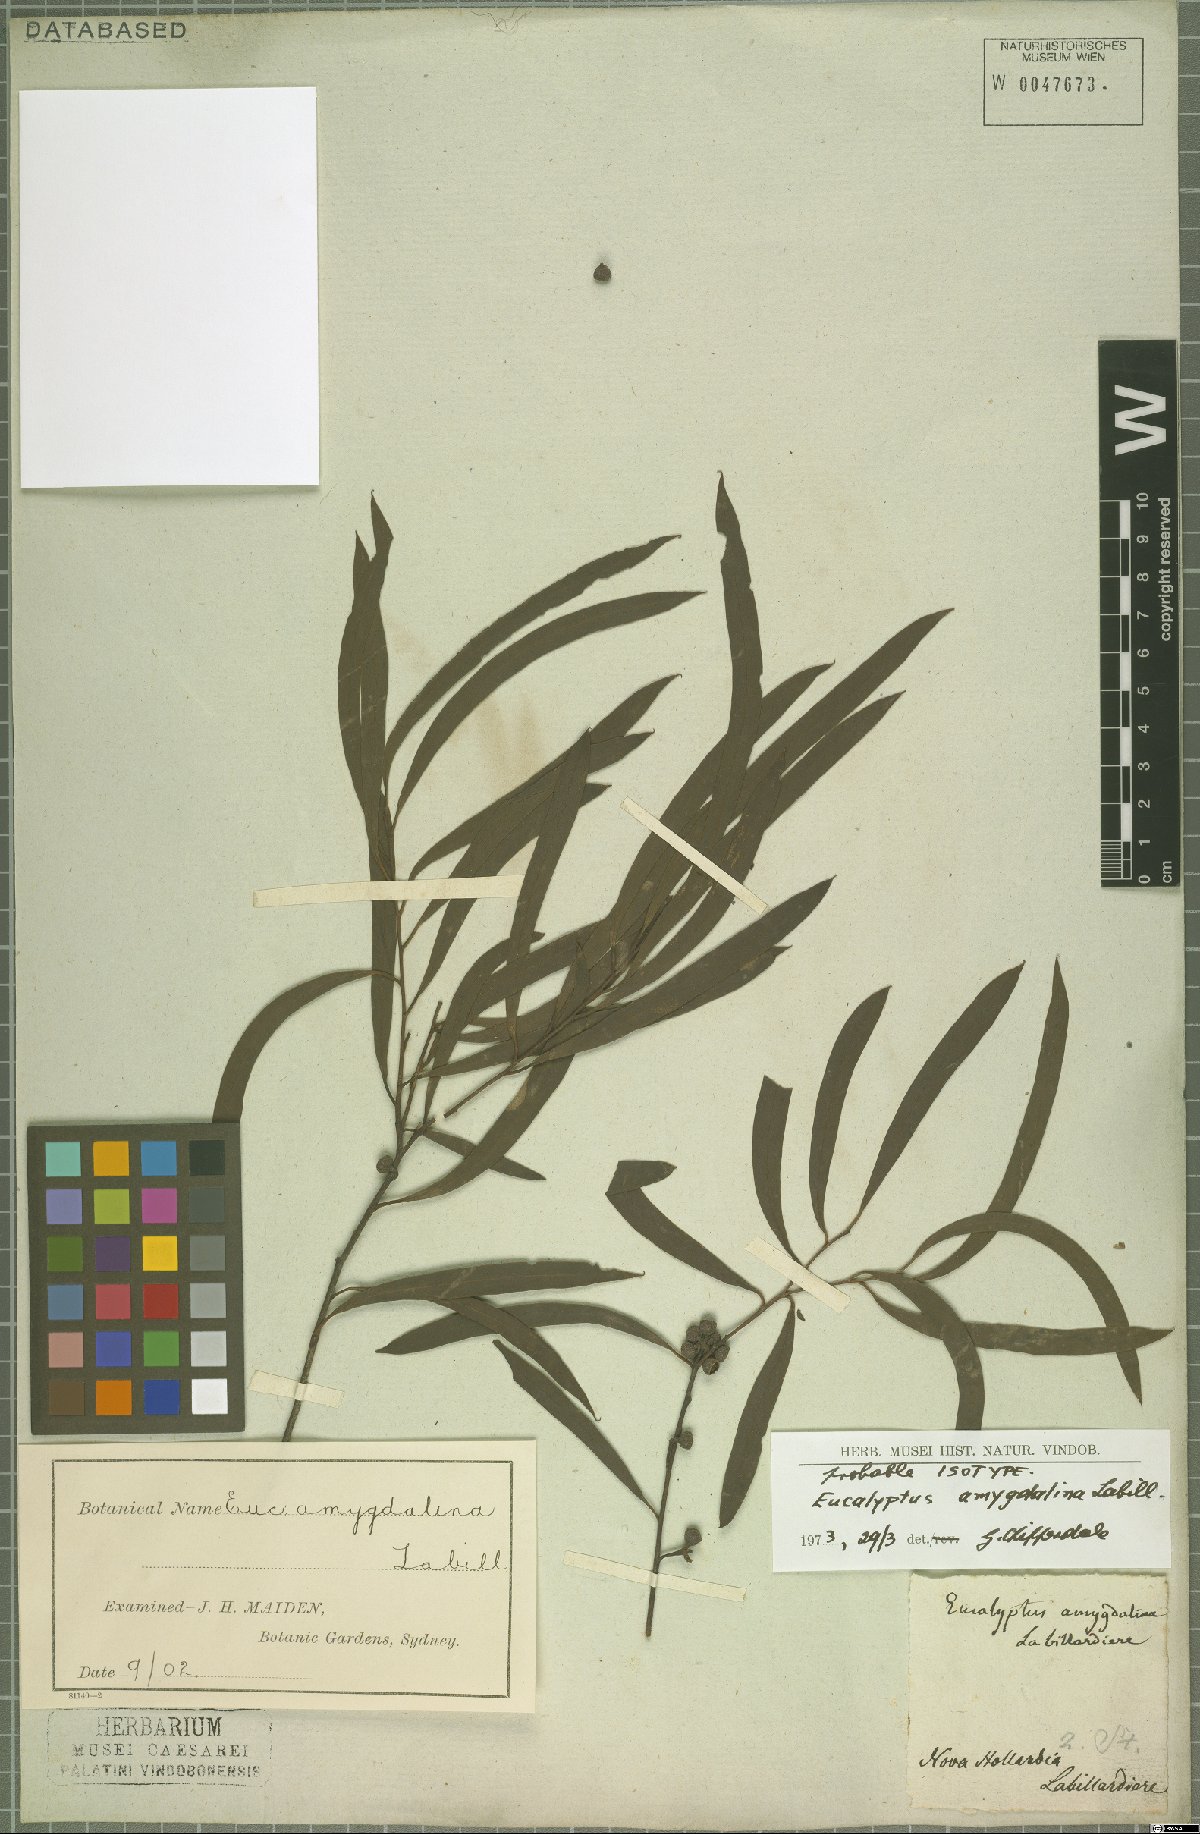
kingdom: Plantae
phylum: Tracheophyta
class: Magnoliopsida
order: Myrtales
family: Myrtaceae
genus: Eucalyptus
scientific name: Eucalyptus amygdalina
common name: Black peppermint
